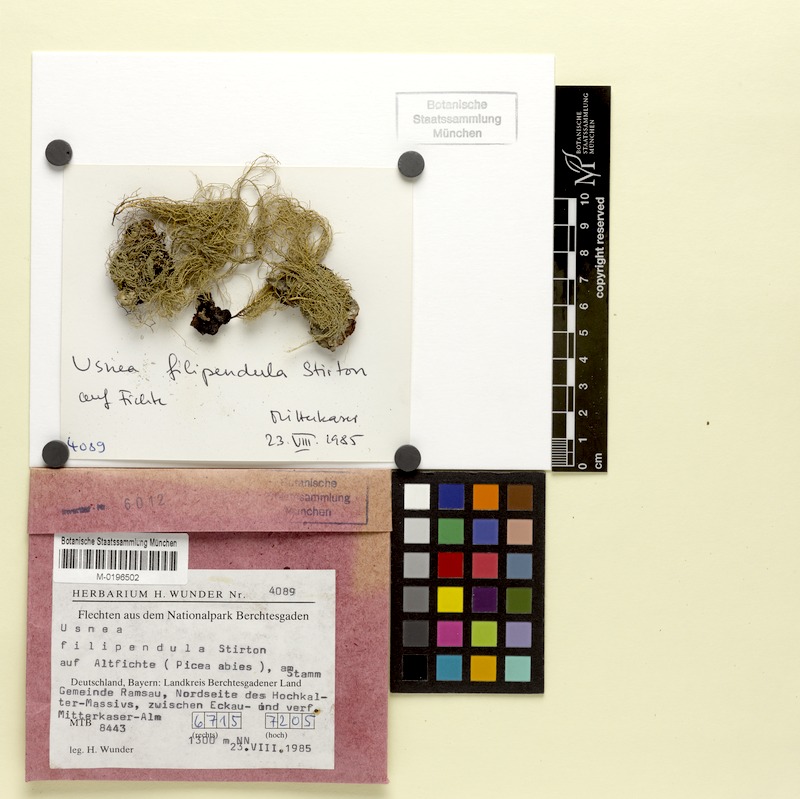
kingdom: Fungi
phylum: Ascomycota
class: Lecanoromycetes
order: Lecanorales
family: Parmeliaceae
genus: Usnea
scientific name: Usnea filipendula
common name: Fishbone beard lichen
